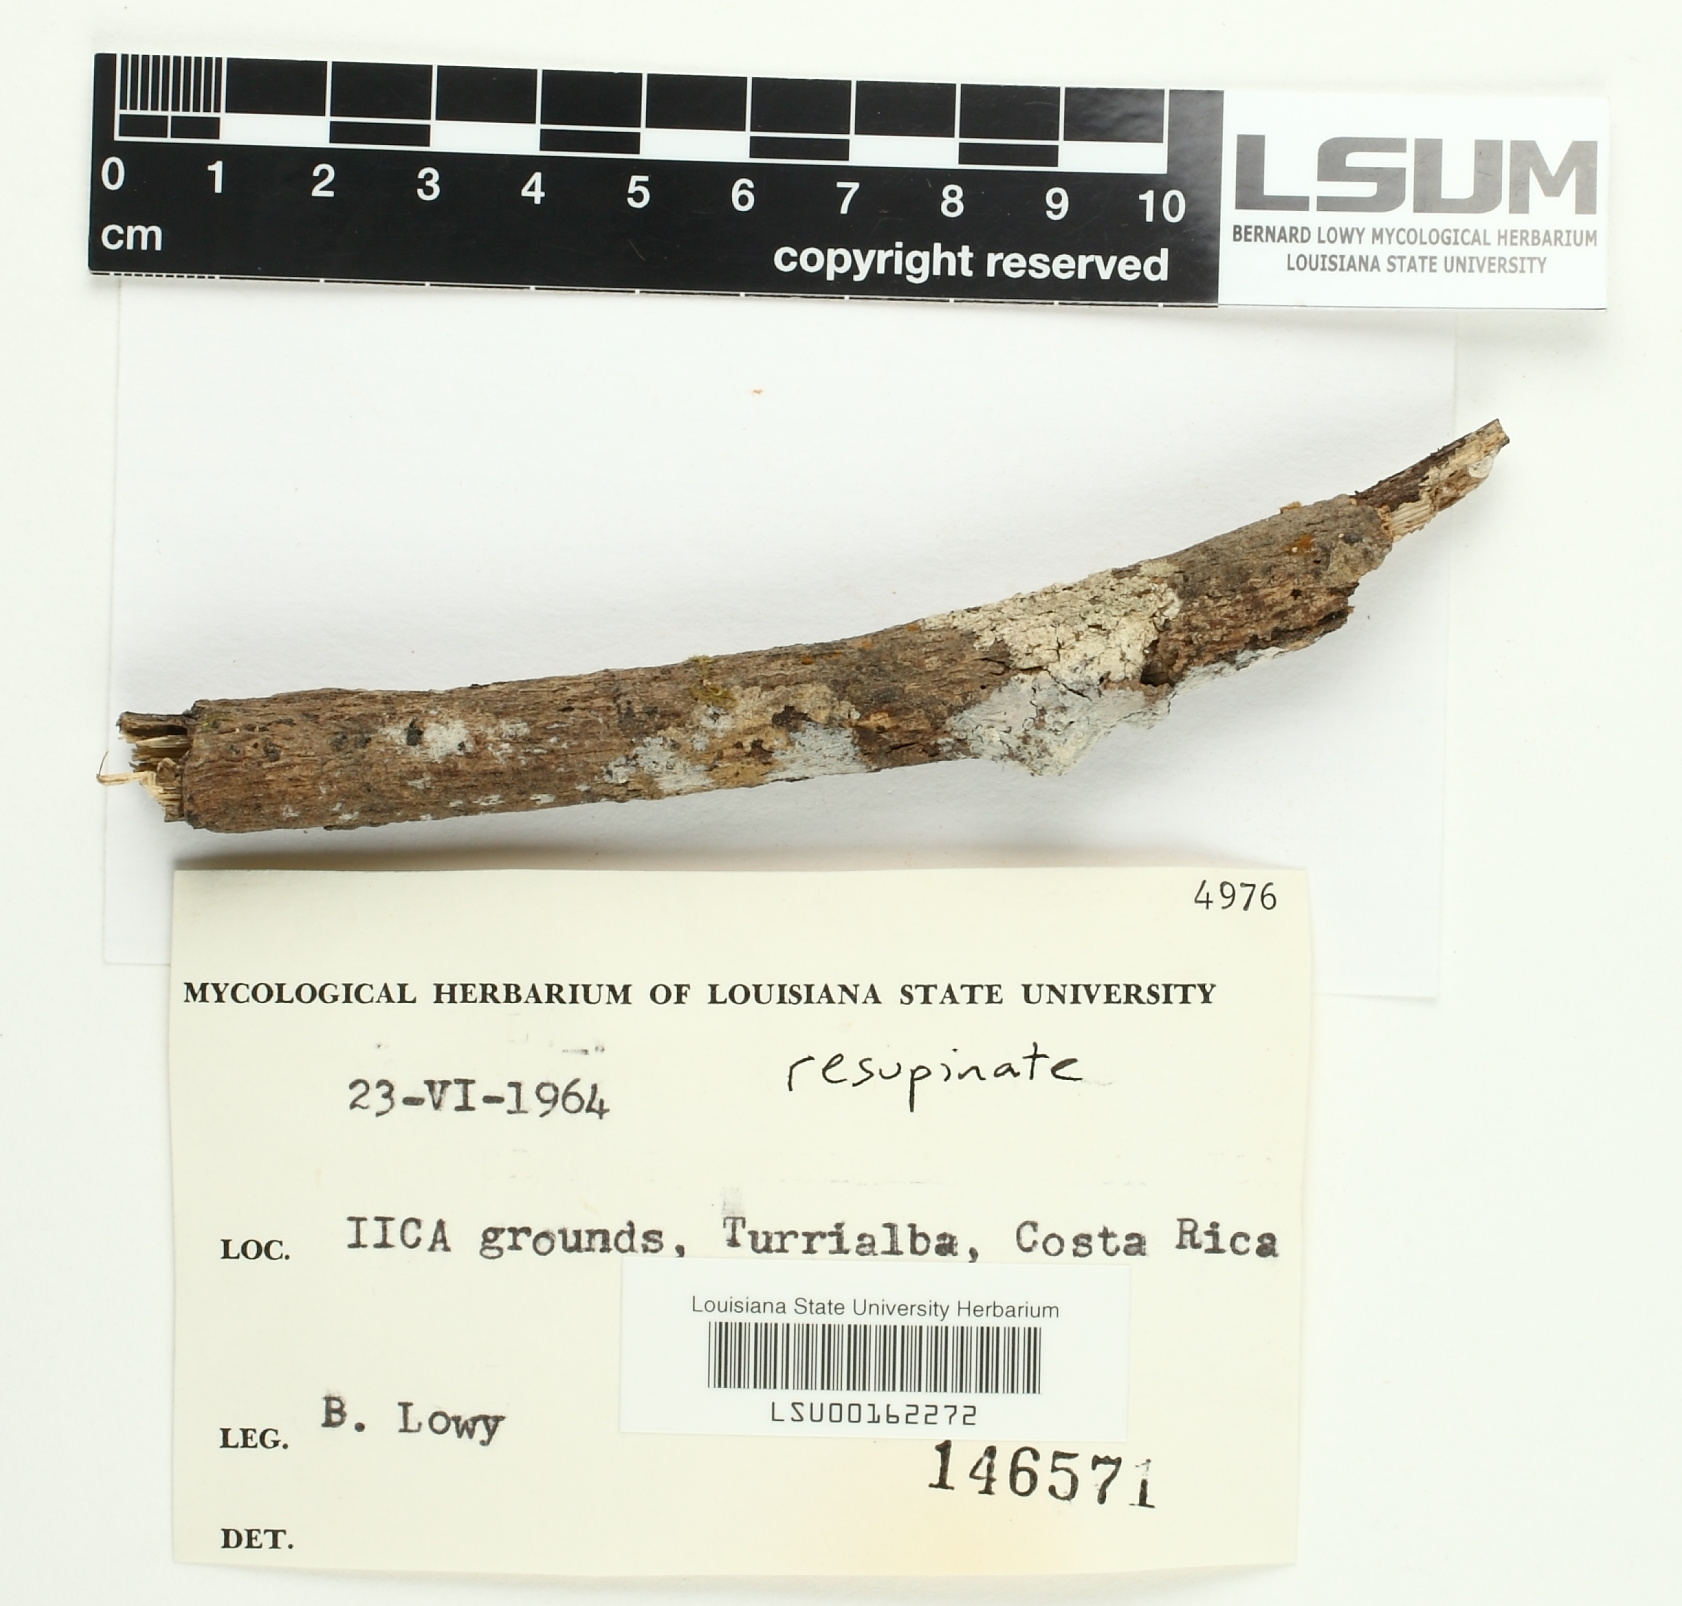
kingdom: Fungi
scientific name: Fungi
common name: Fungi
